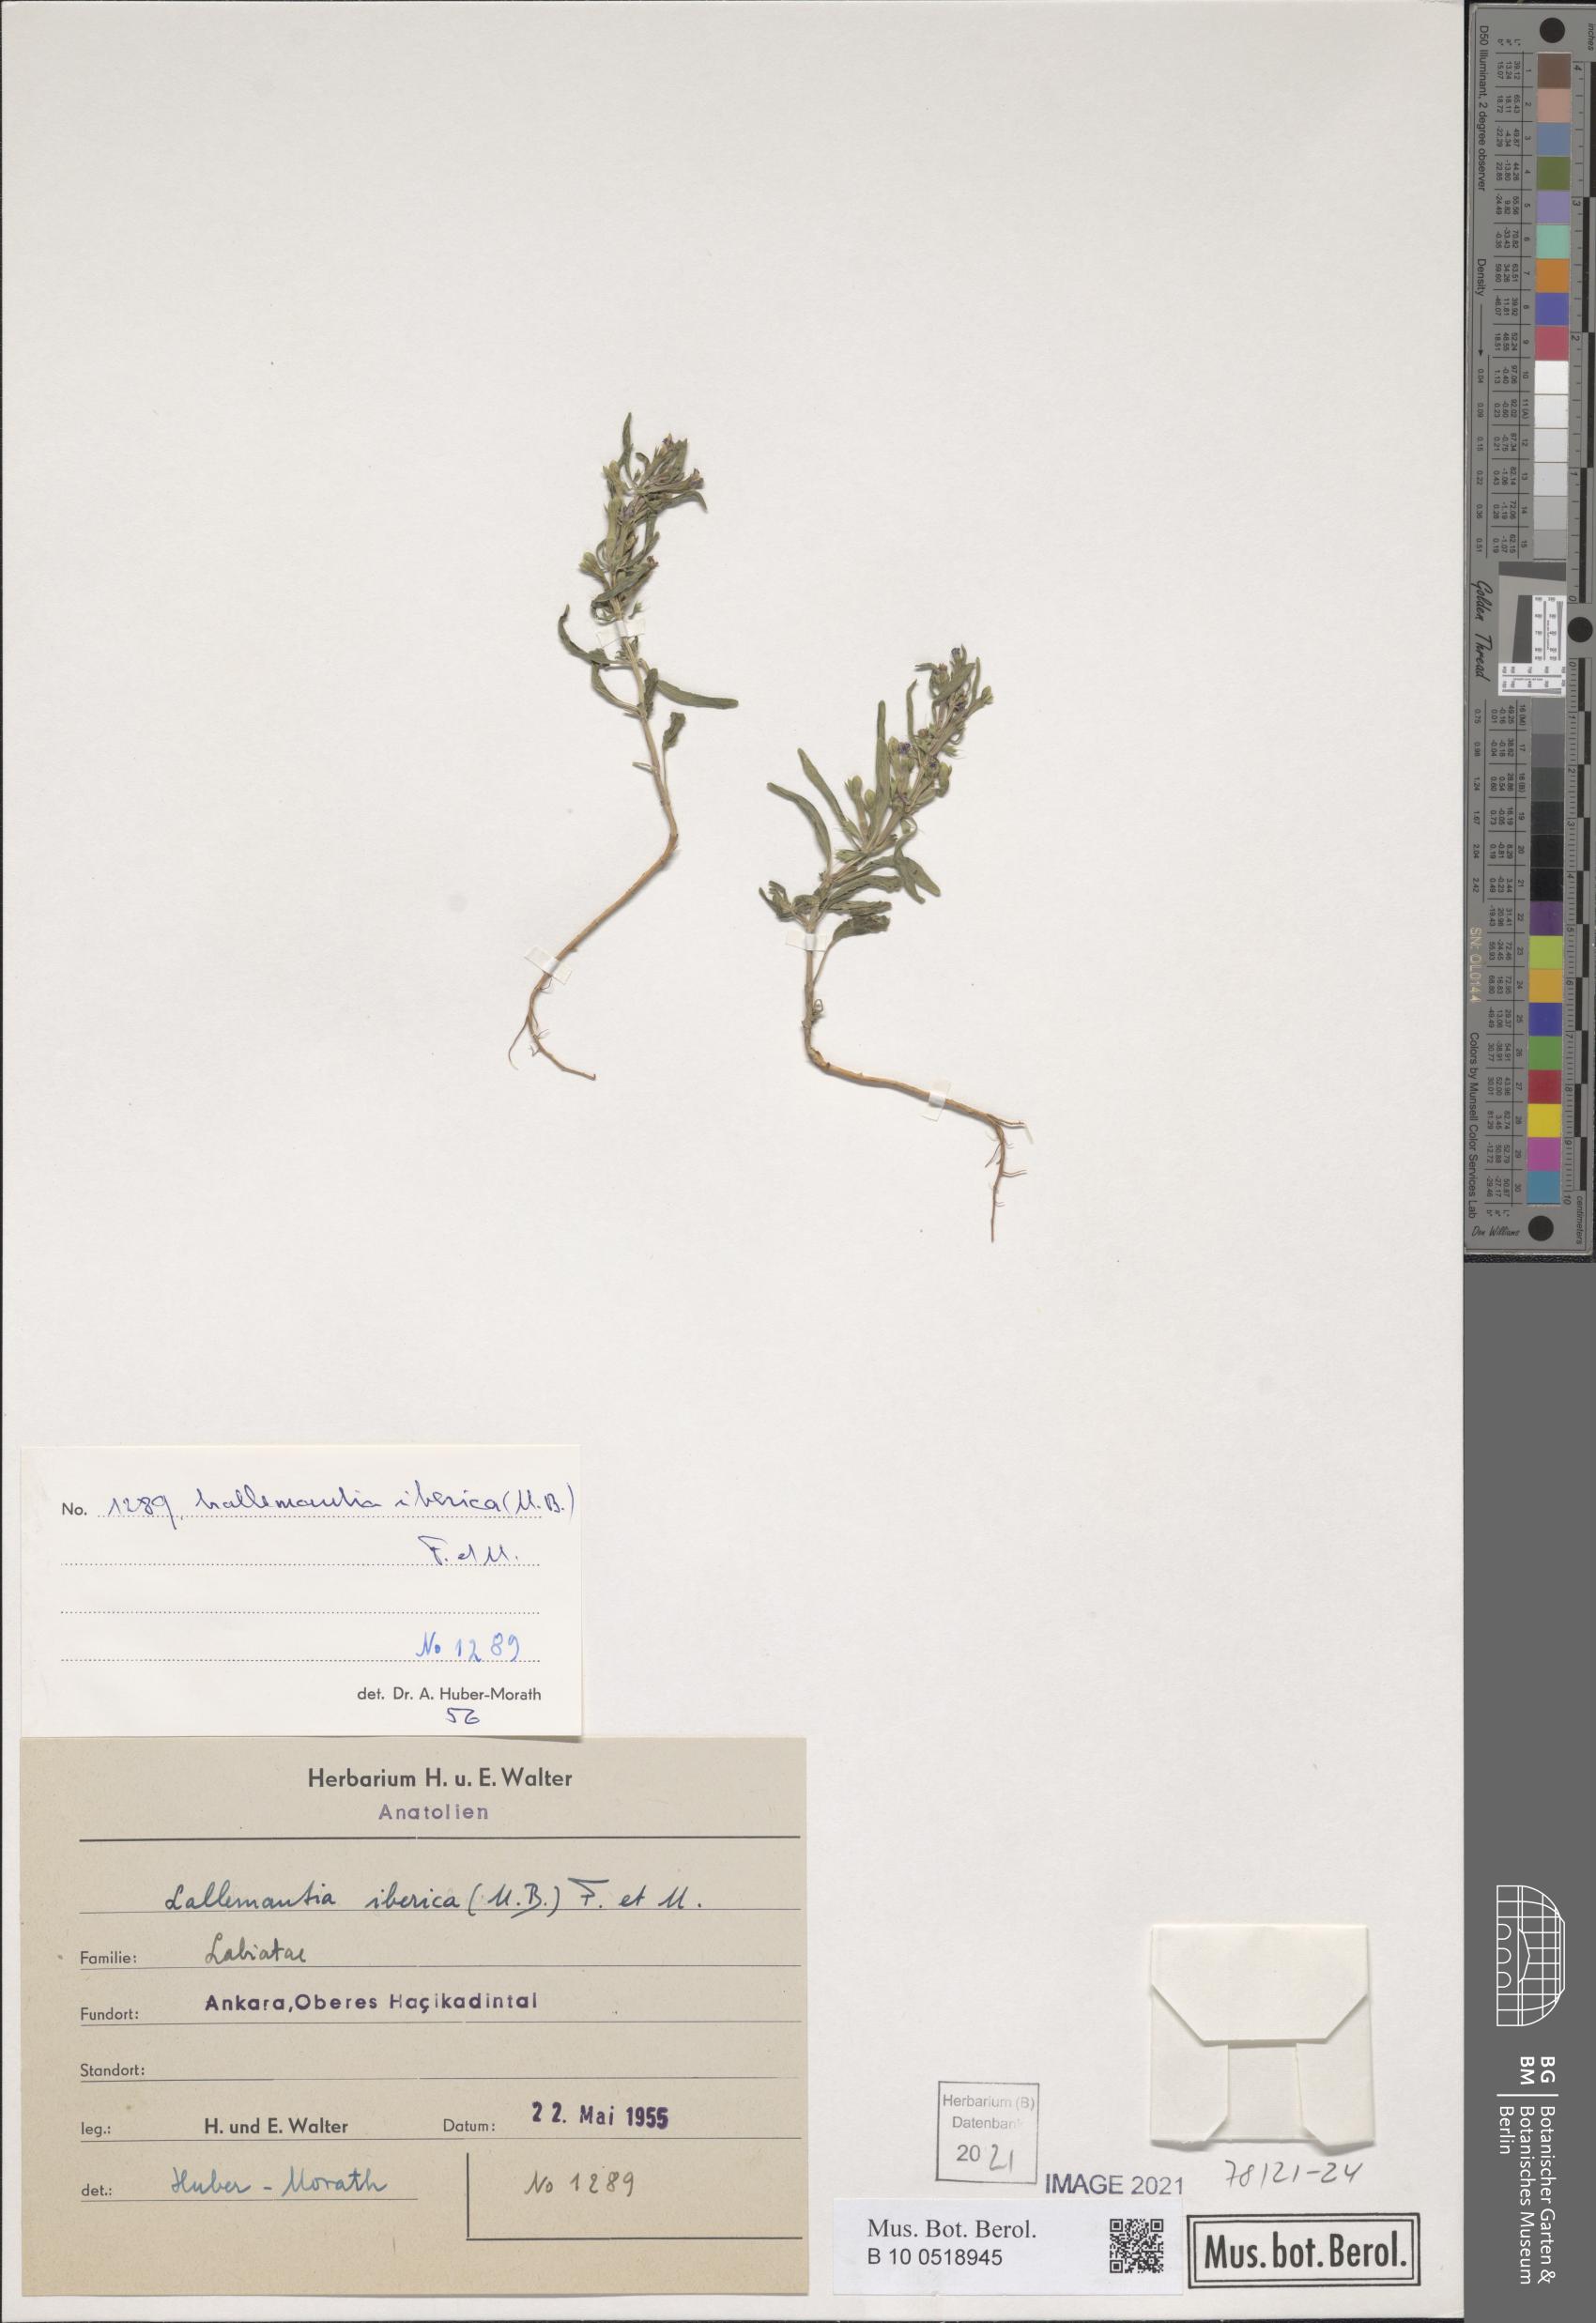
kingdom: Plantae
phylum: Tracheophyta
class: Magnoliopsida
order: Lamiales
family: Lamiaceae
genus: Lallemantia
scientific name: Lallemantia iberica
